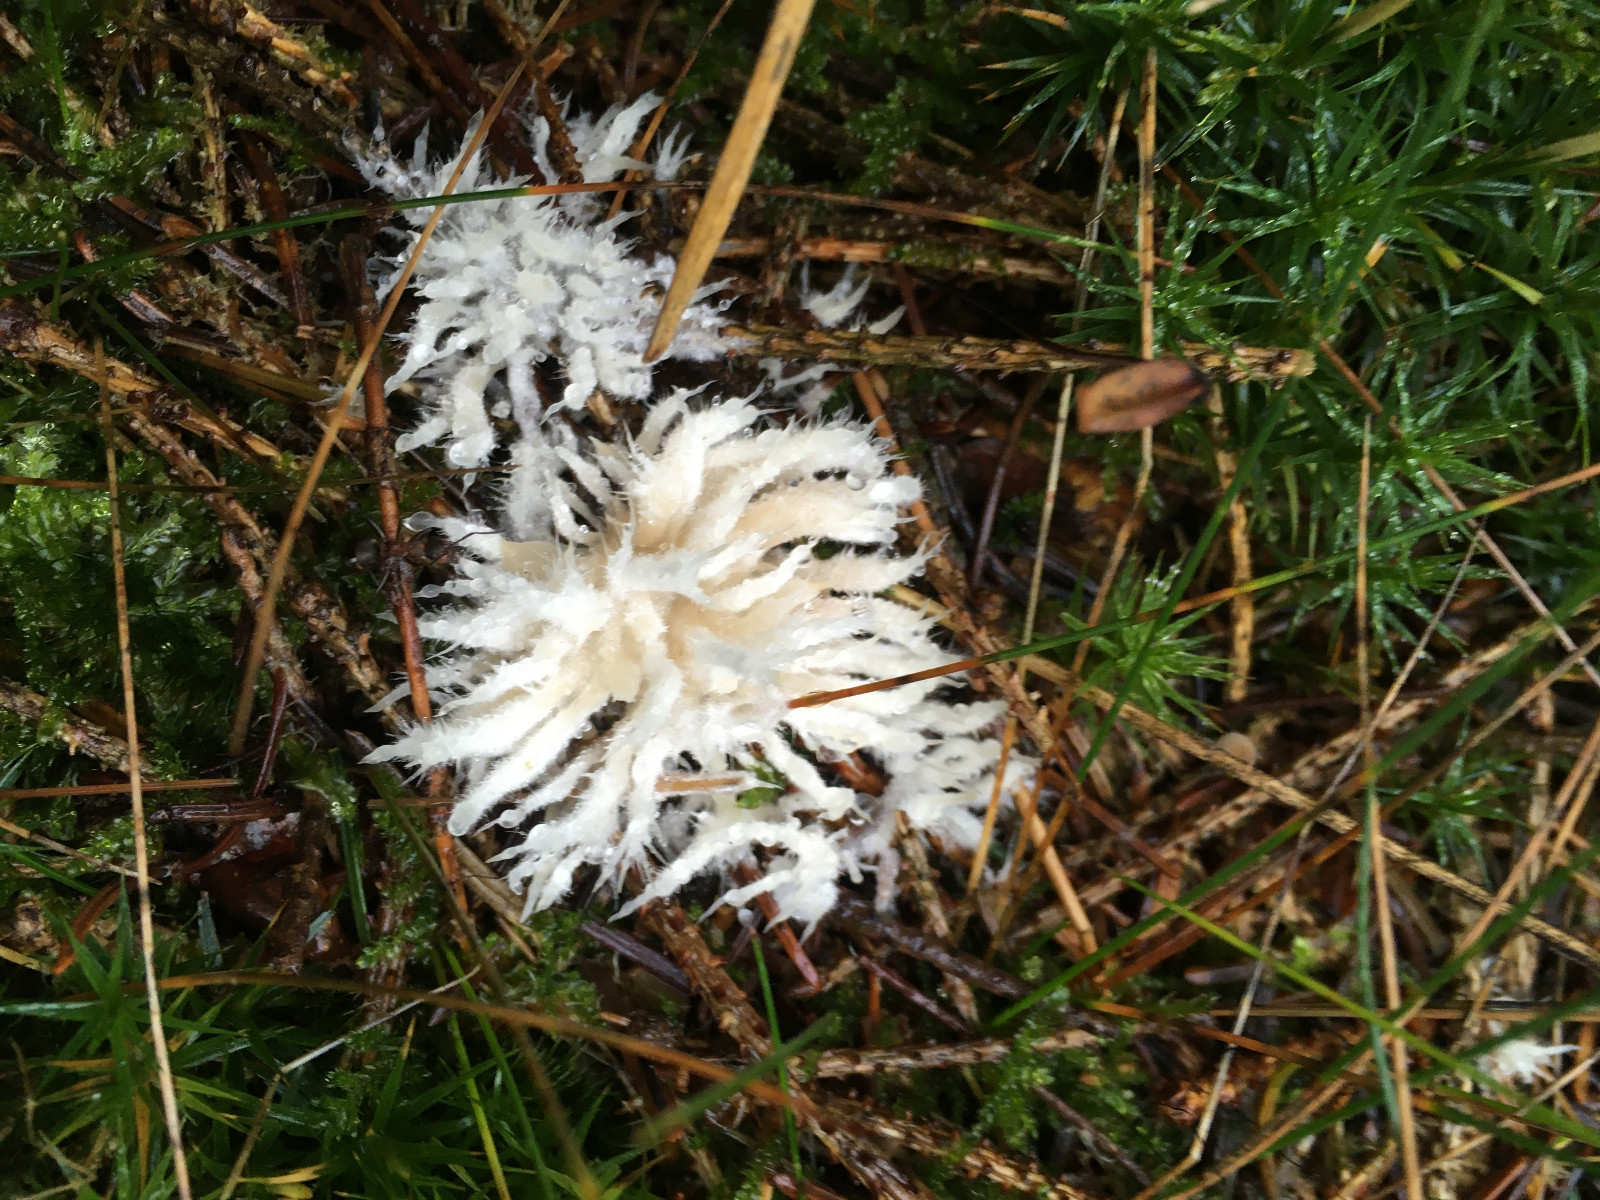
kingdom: Fungi
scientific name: Fungi
